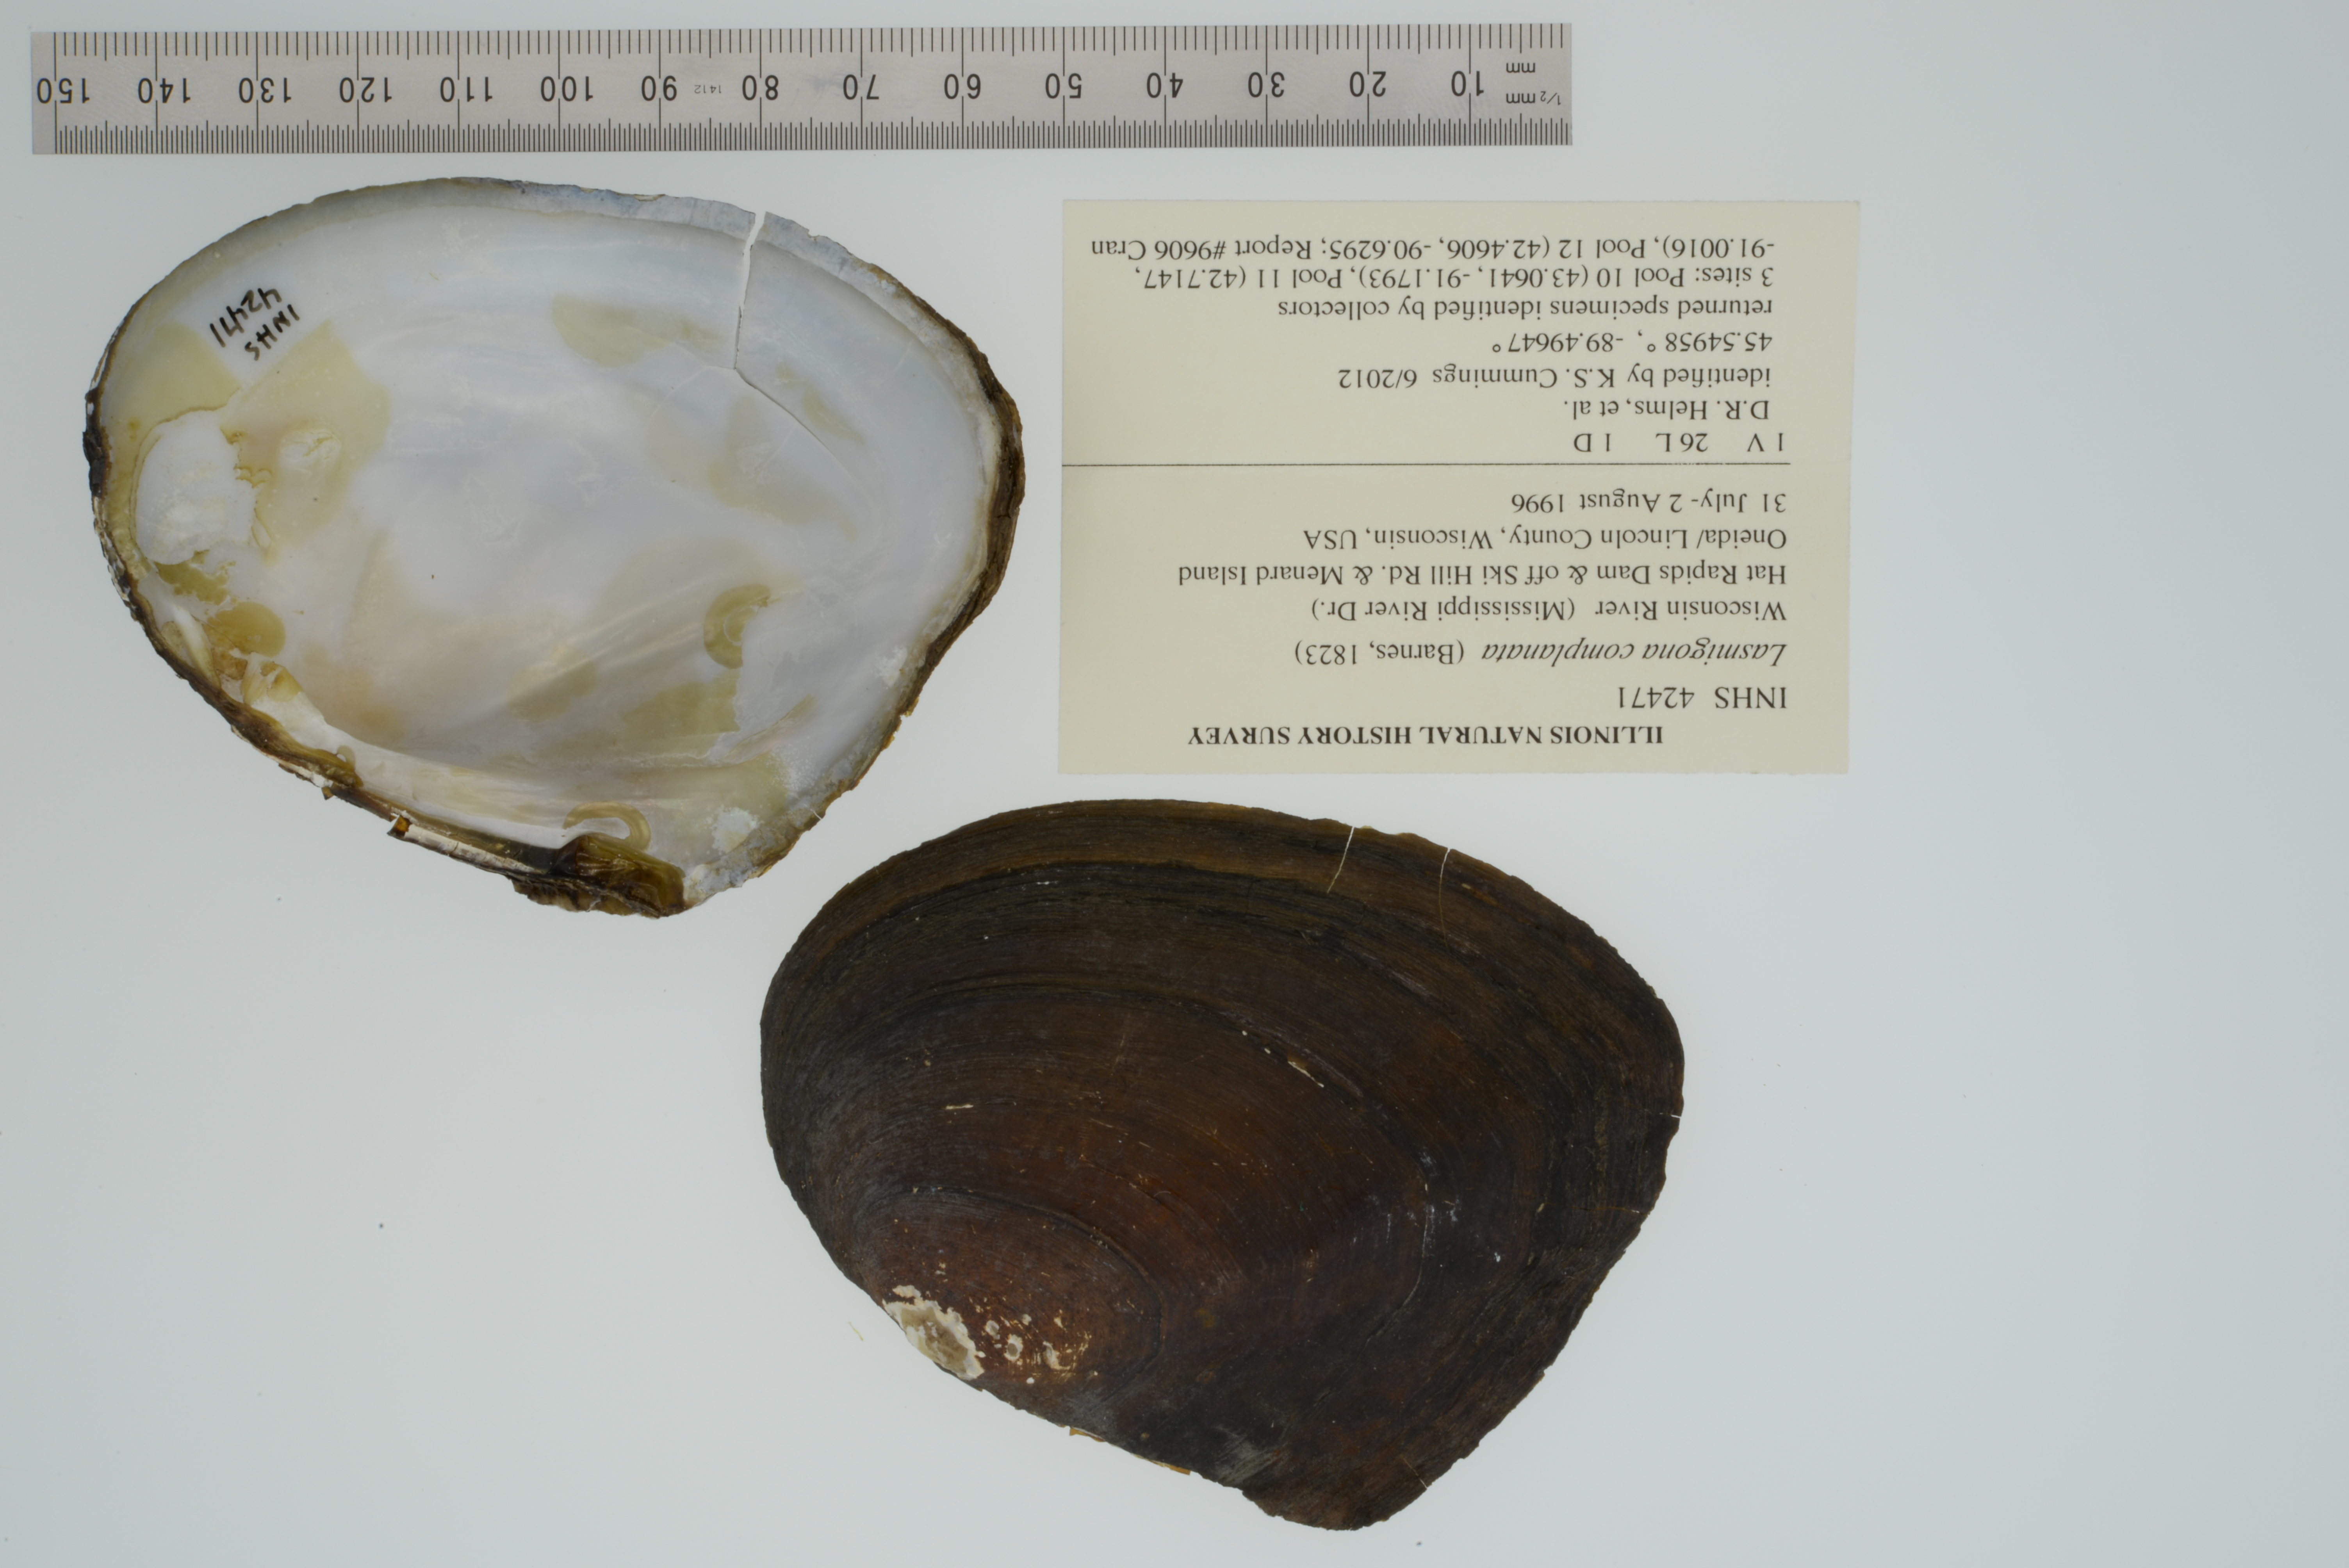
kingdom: Animalia
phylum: Mollusca
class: Bivalvia
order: Unionida
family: Unionidae
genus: Lasmigona
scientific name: Lasmigona complanata
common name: White heelsplitter
